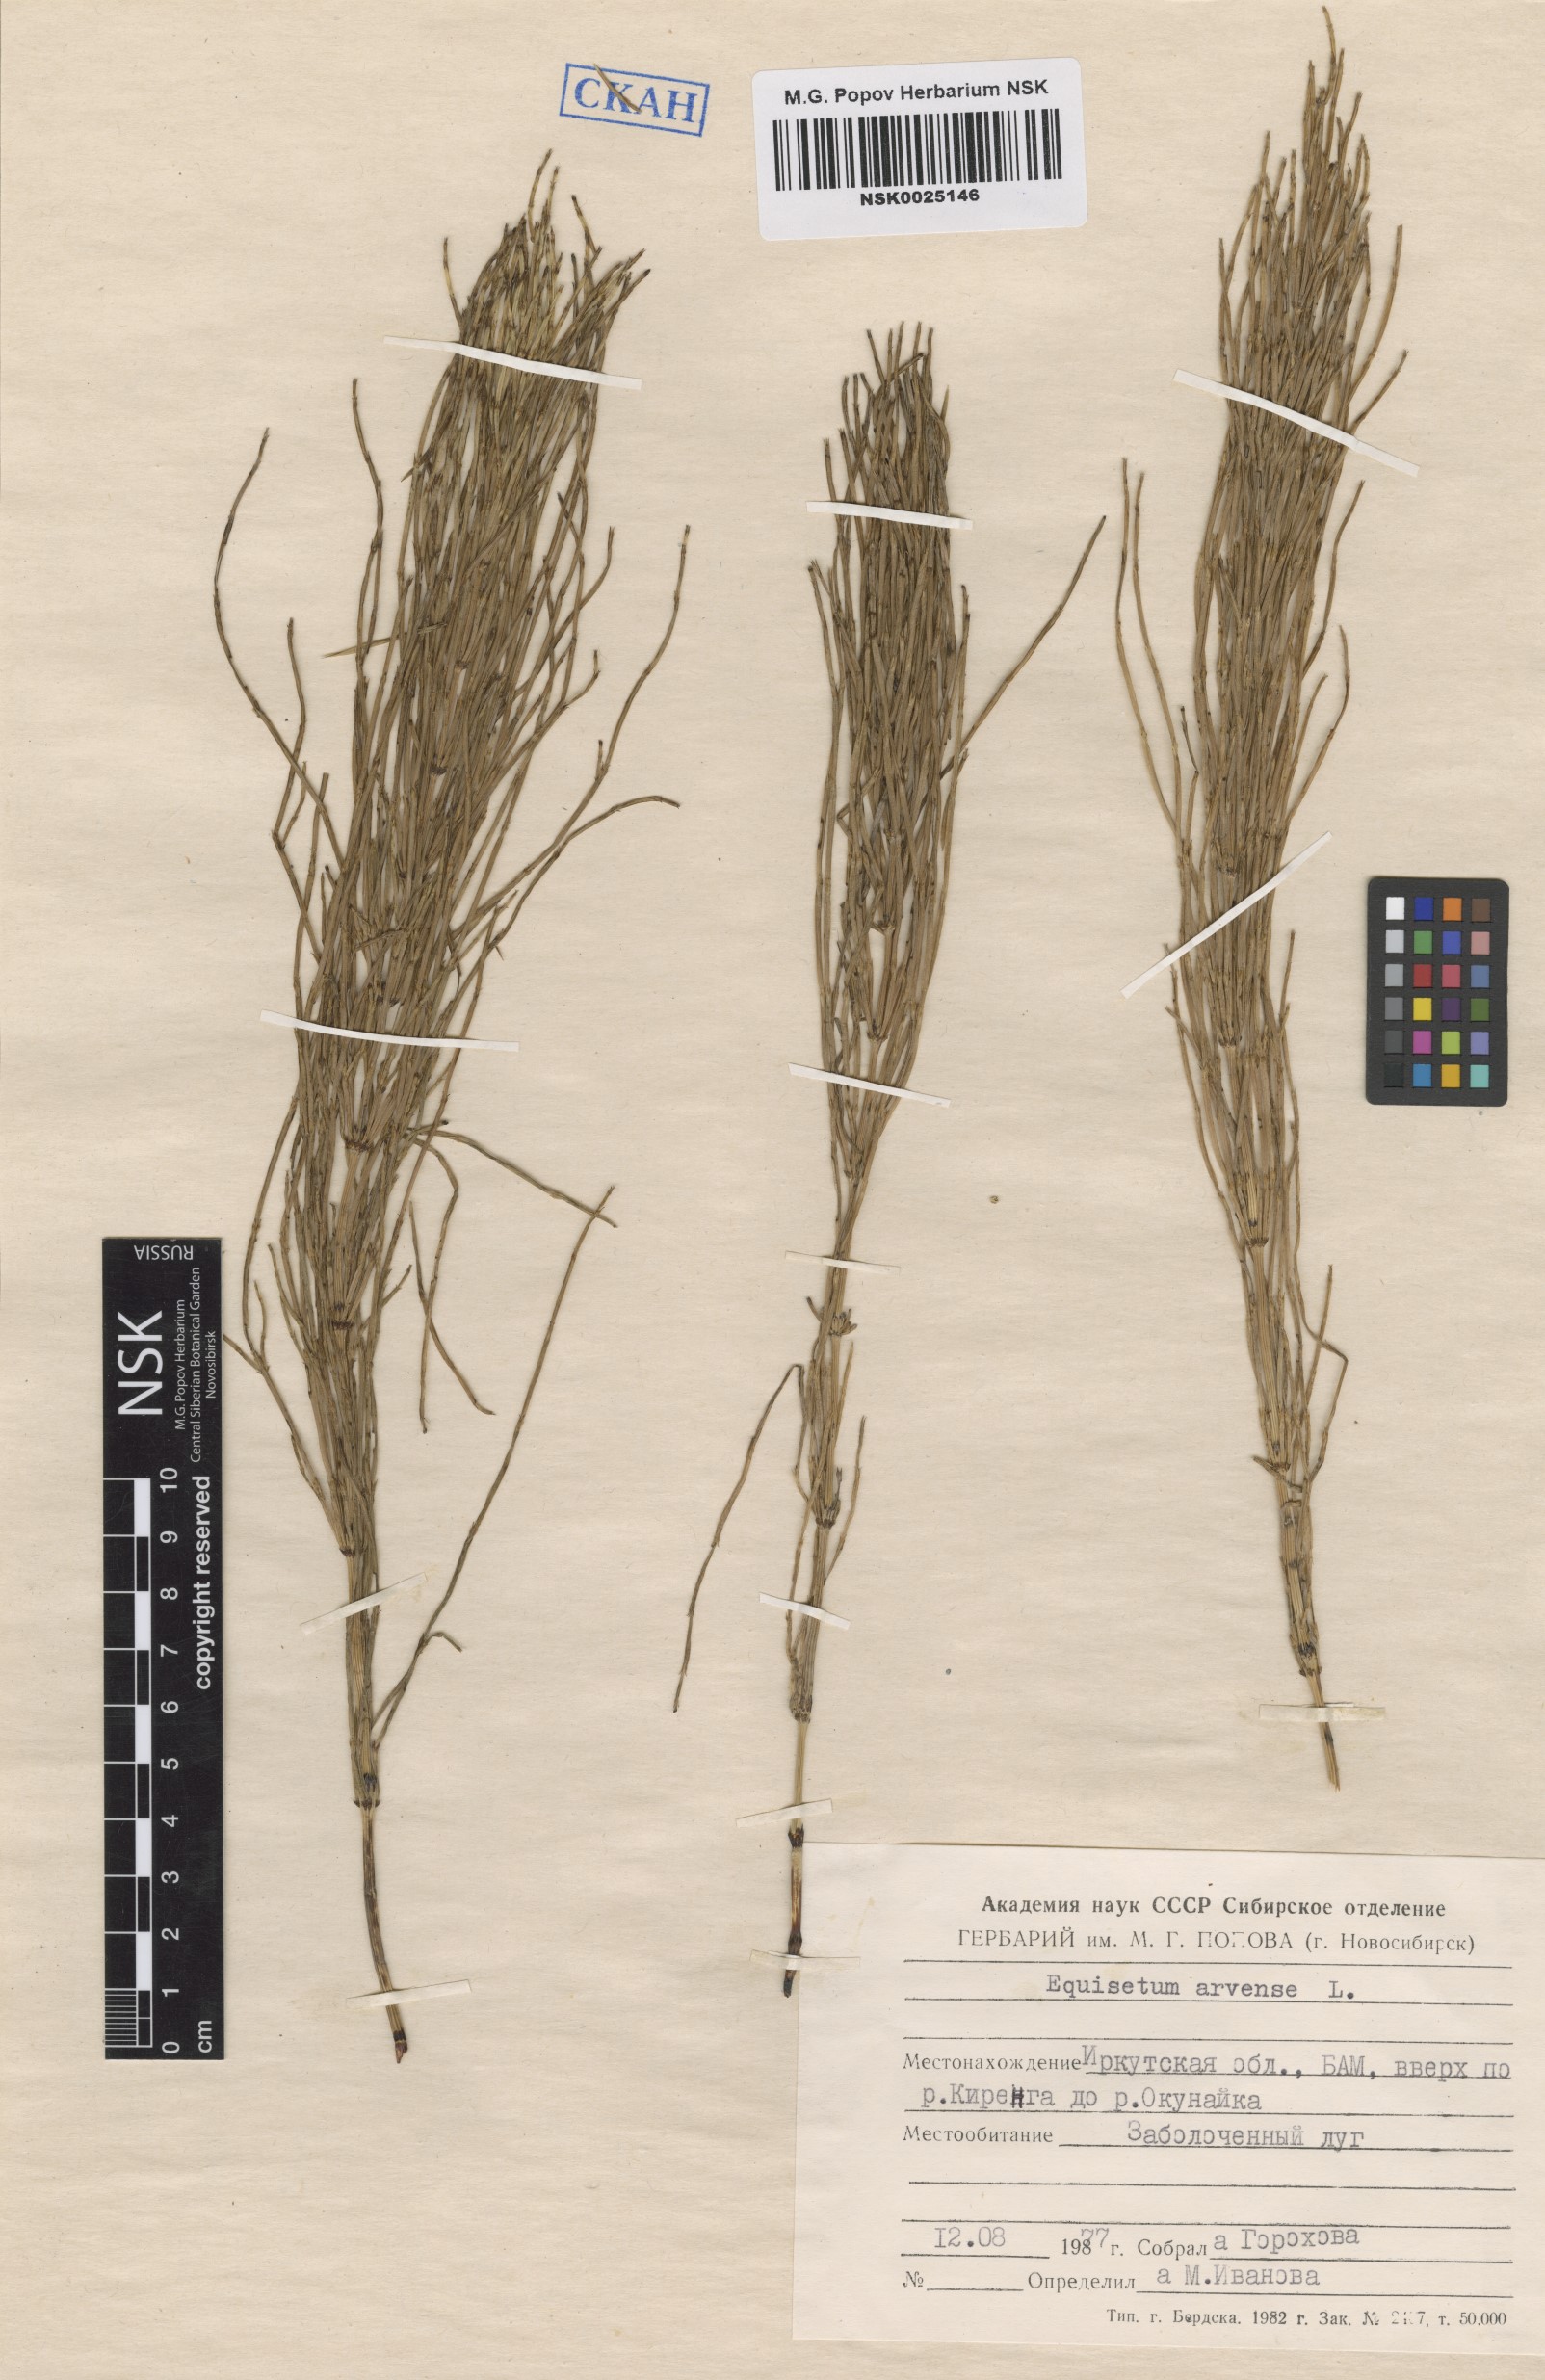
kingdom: Plantae
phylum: Tracheophyta
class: Polypodiopsida
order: Equisetales
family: Equisetaceae
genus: Equisetum
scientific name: Equisetum arvense
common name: Field horsetail
